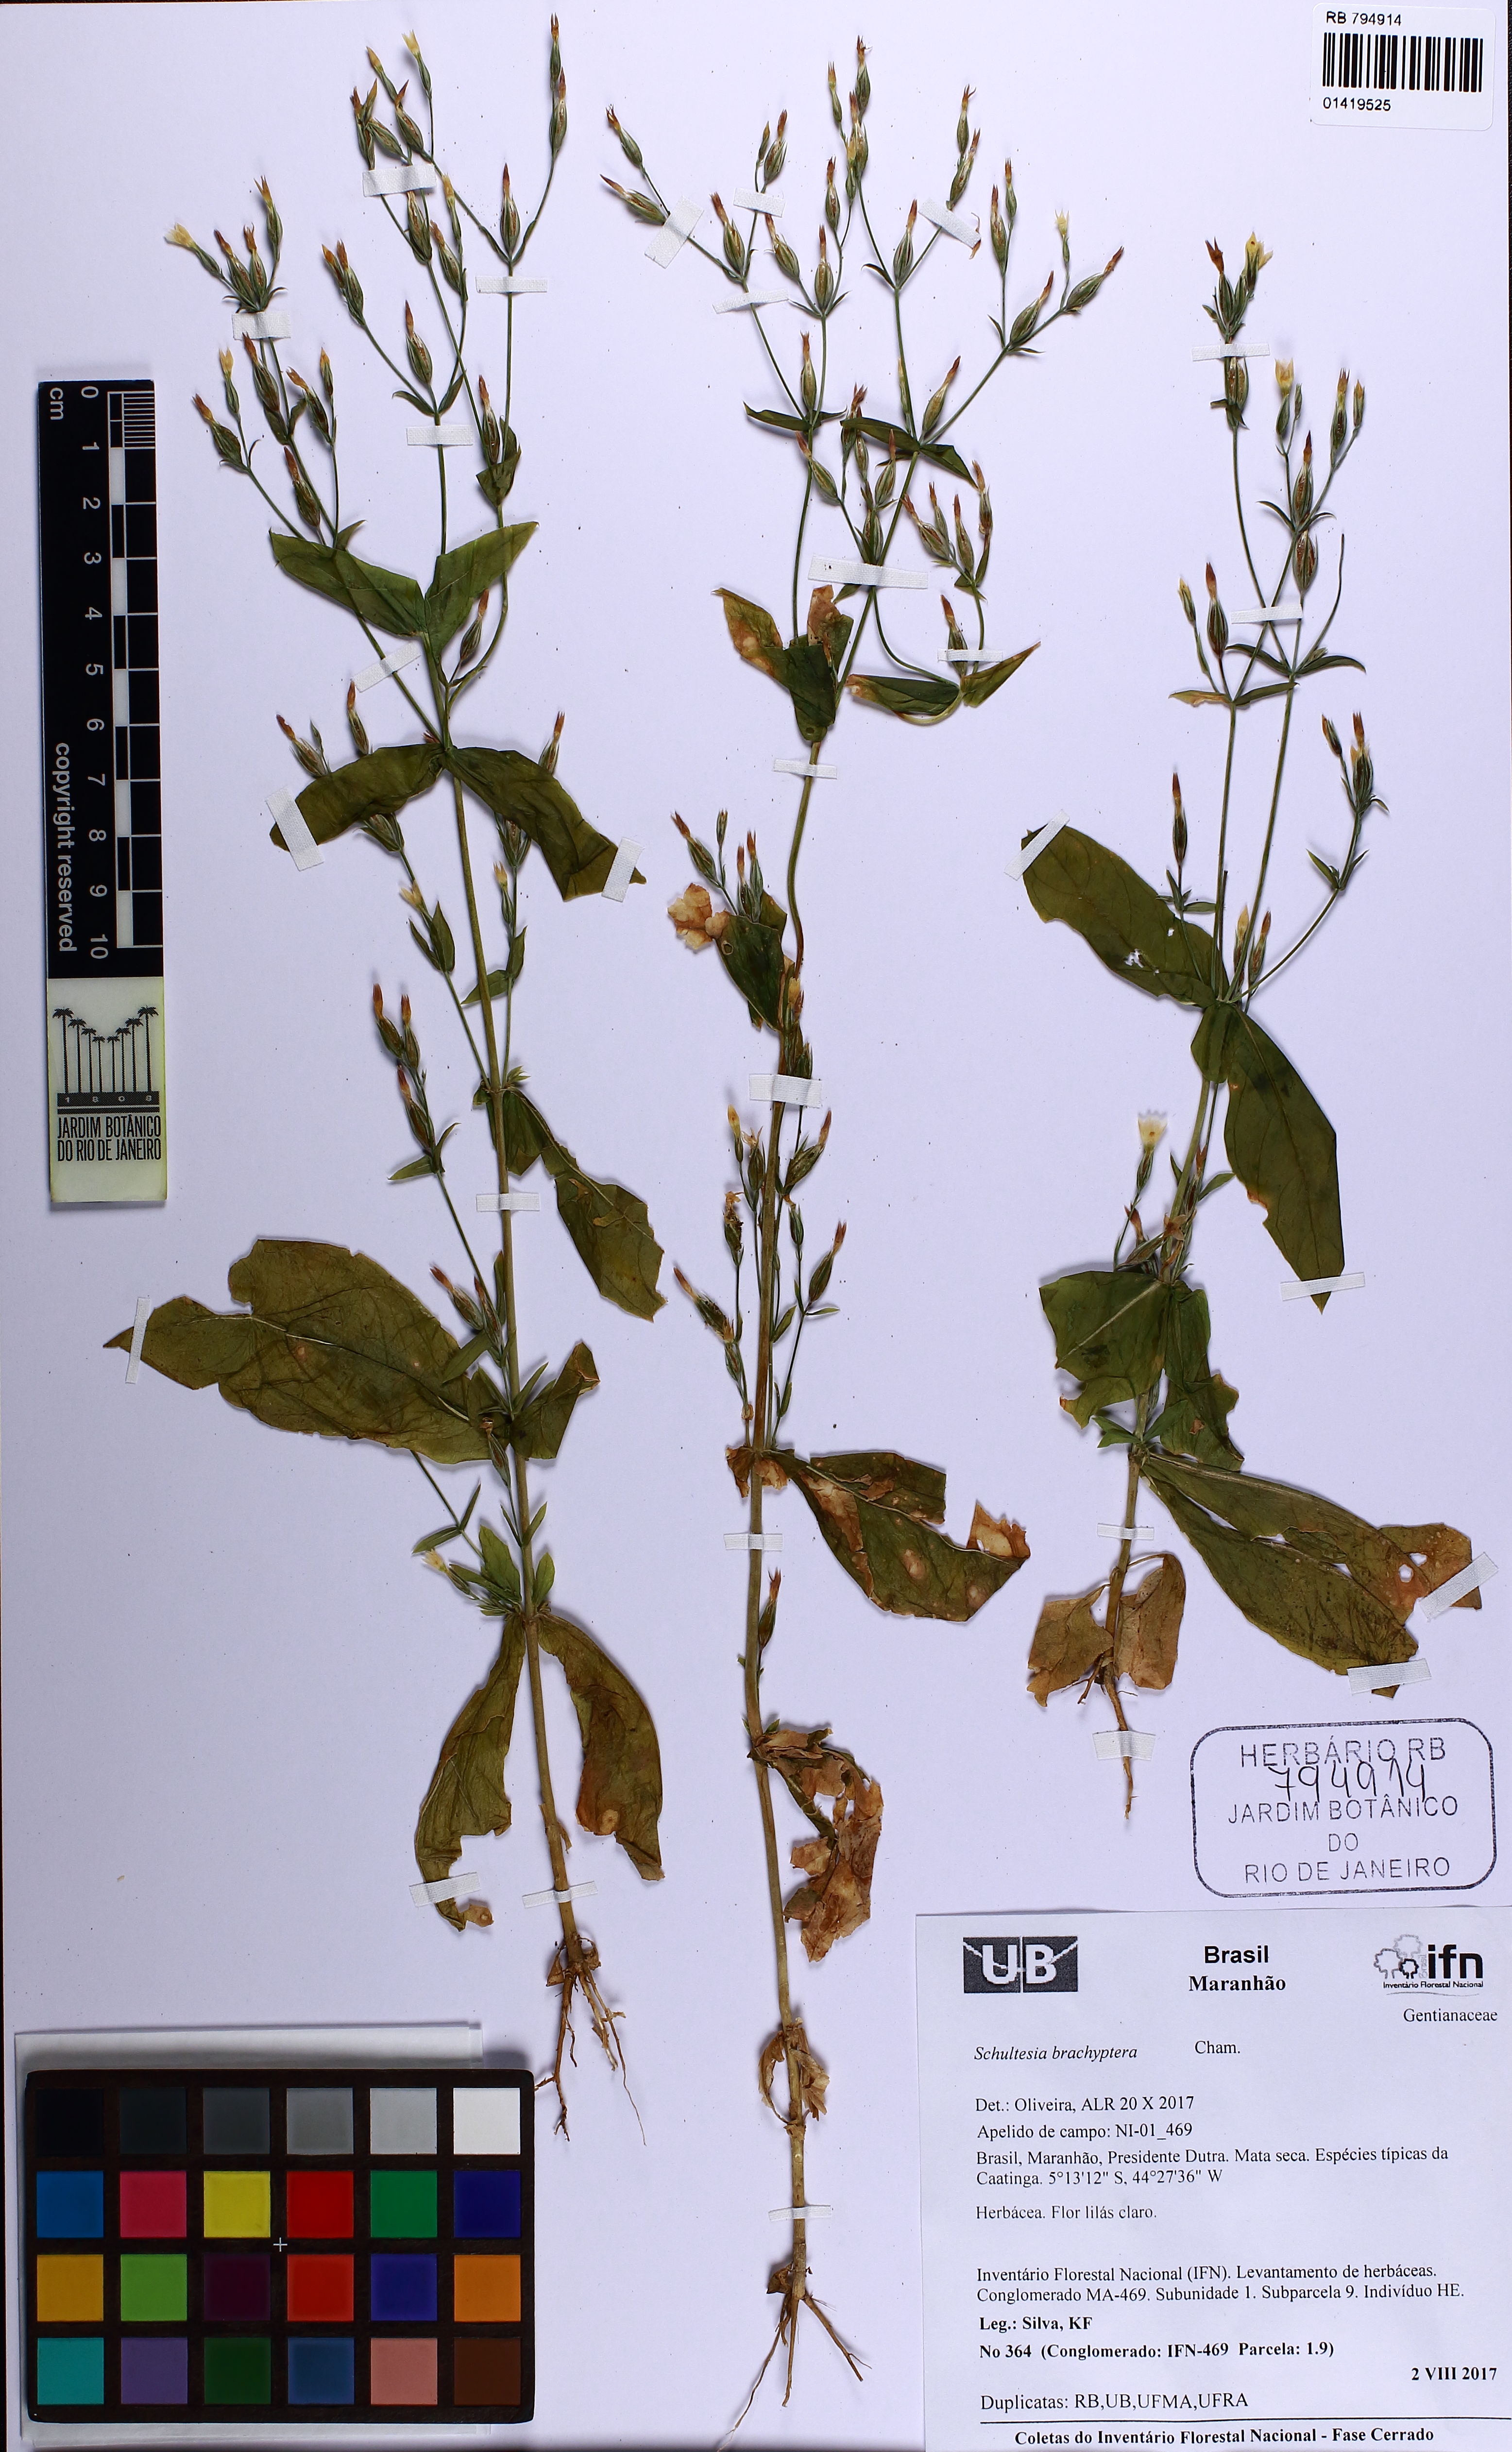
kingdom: Plantae
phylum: Tracheophyta
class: Magnoliopsida
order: Gentianales
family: Gentianaceae
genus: Schultesia
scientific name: Schultesia brachyptera
